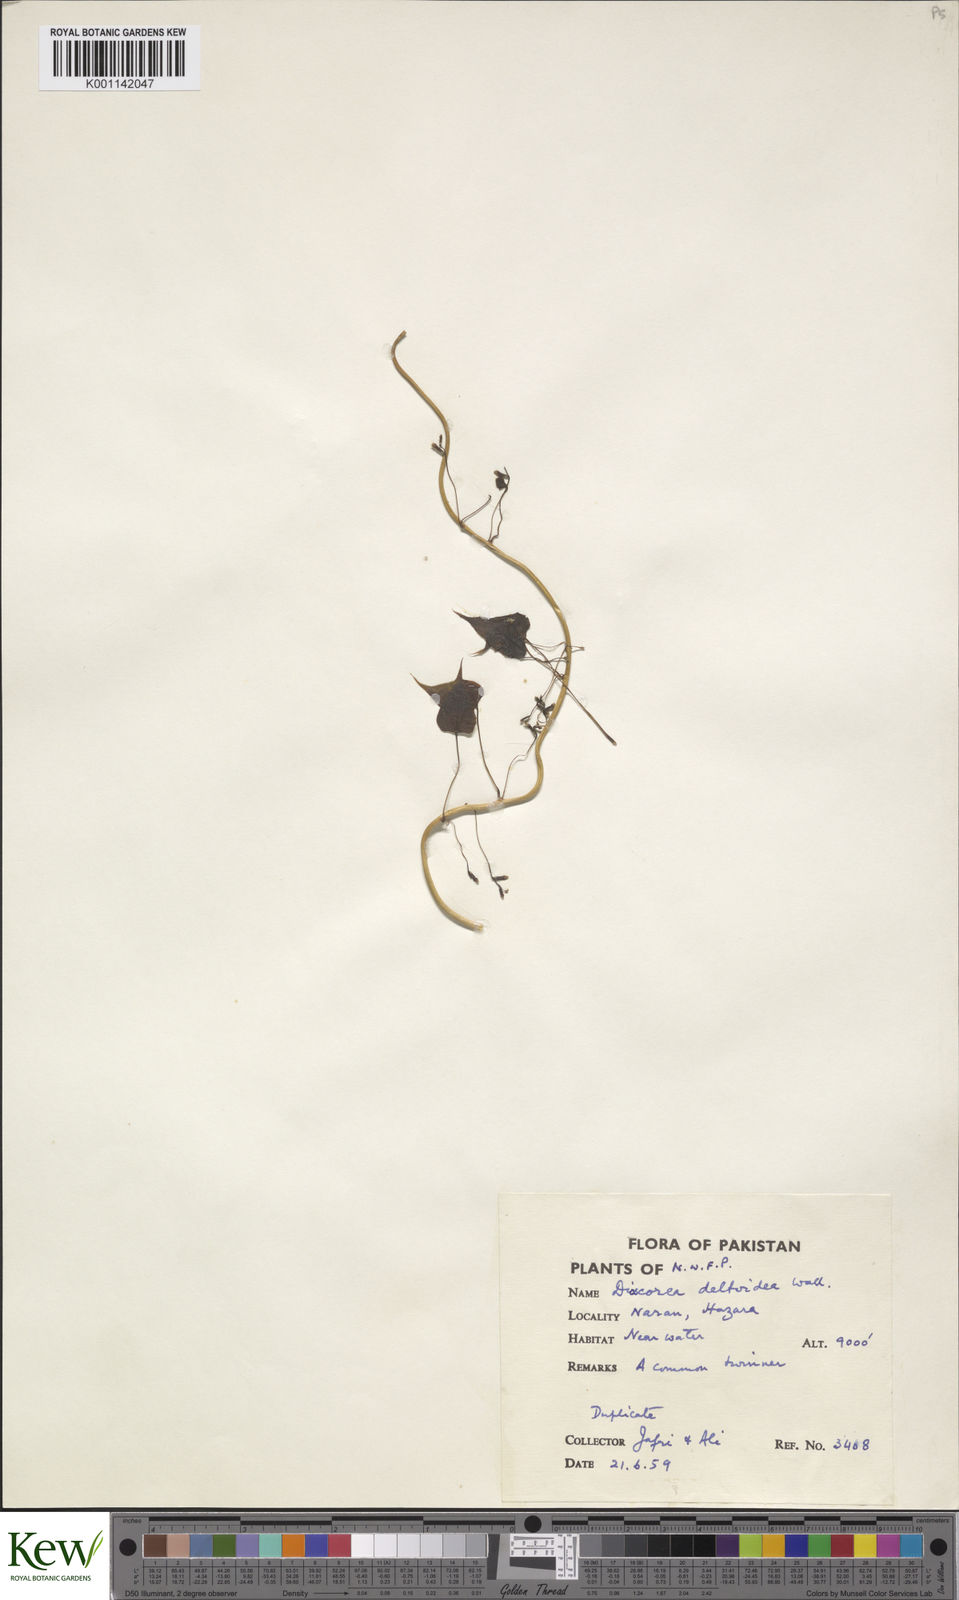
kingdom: Plantae
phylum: Tracheophyta
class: Liliopsida
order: Dioscoreales
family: Dioscoreaceae
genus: Dioscorea
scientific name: Dioscorea deltoidea
